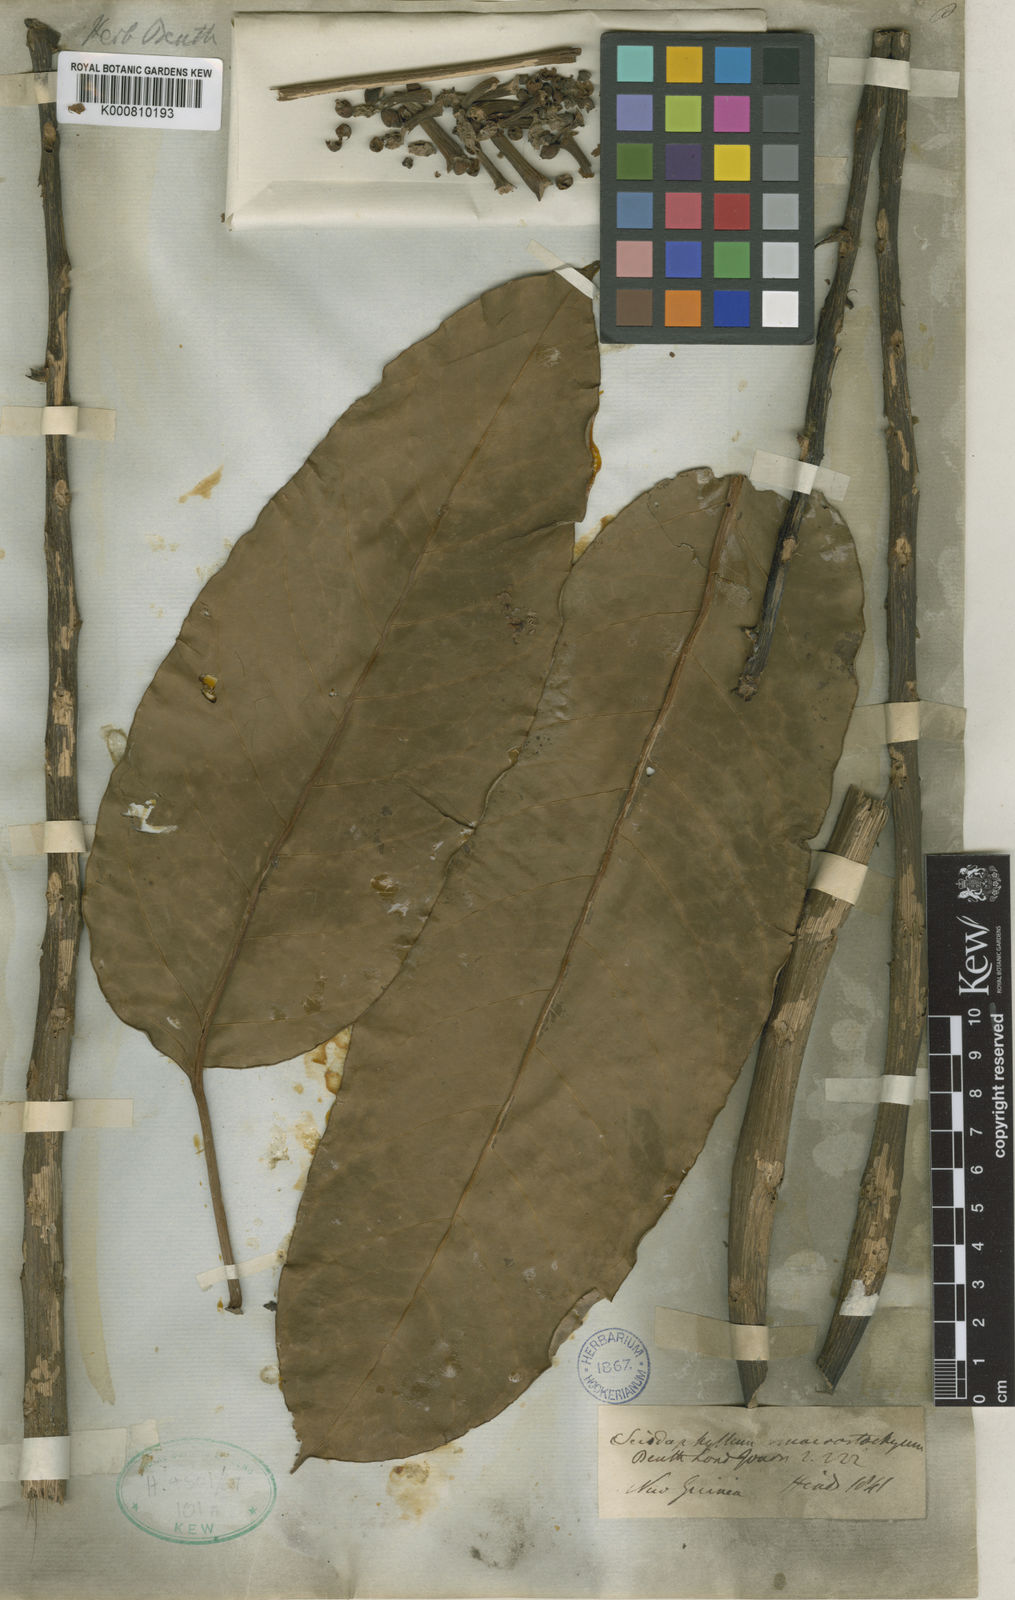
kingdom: Plantae
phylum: Tracheophyta
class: Magnoliopsida
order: Apiales
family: Araliaceae
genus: Heptapleurum
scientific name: Heptapleurum macrostachyum
